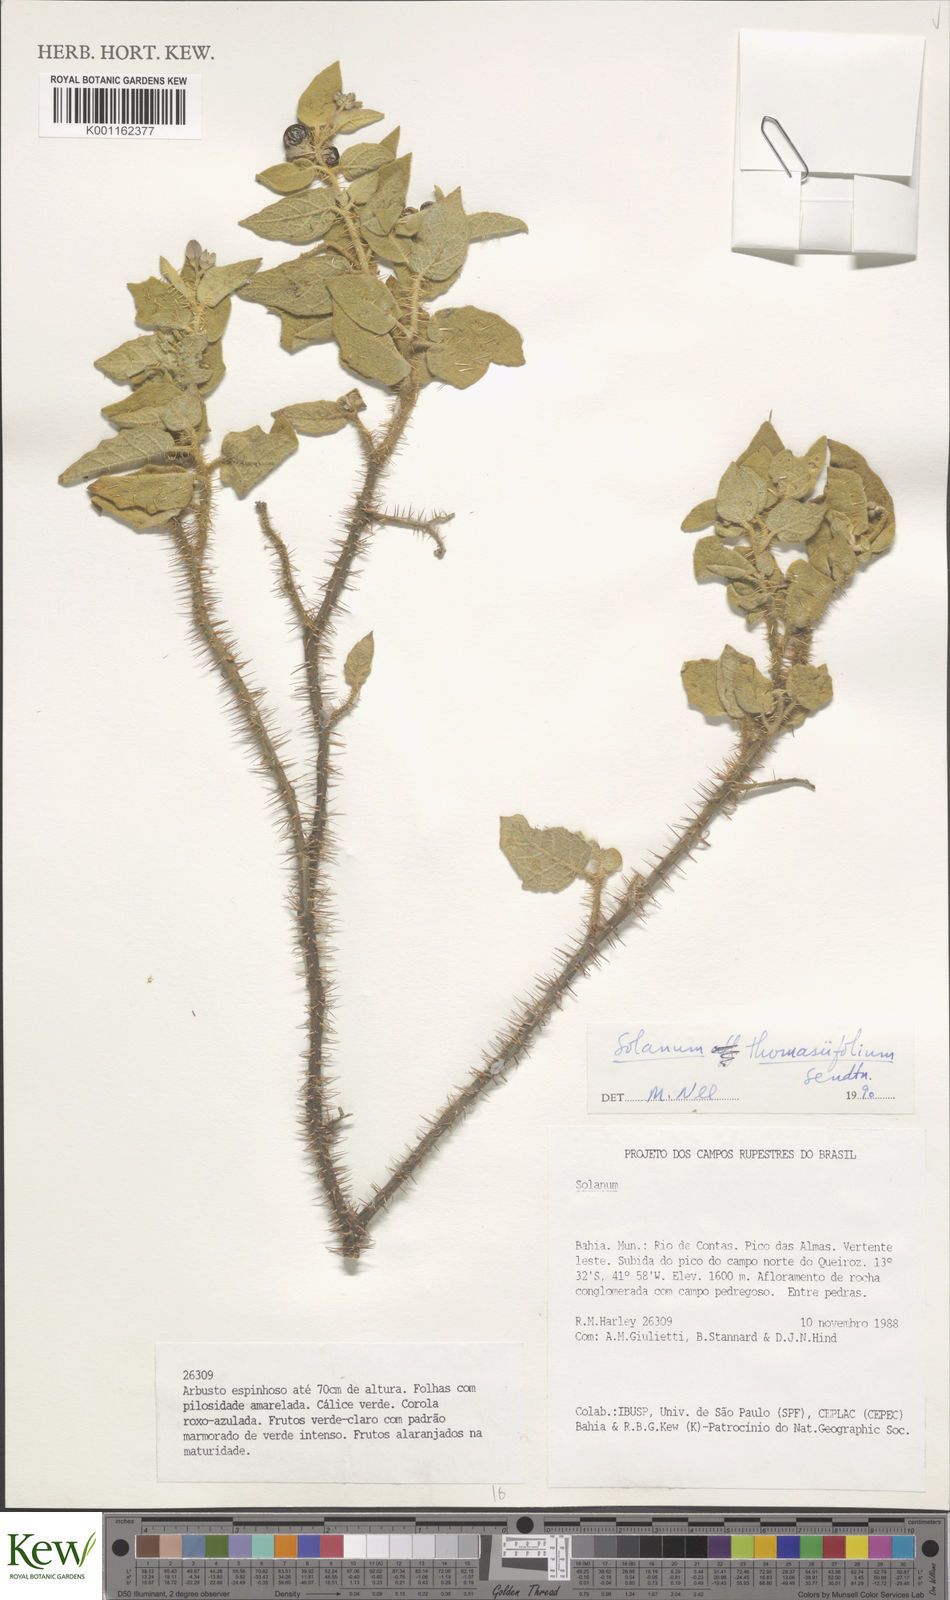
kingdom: Plantae
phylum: Tracheophyta
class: Magnoliopsida
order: Solanales
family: Solanaceae
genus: Solanum
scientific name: Solanum thomasiifolium
